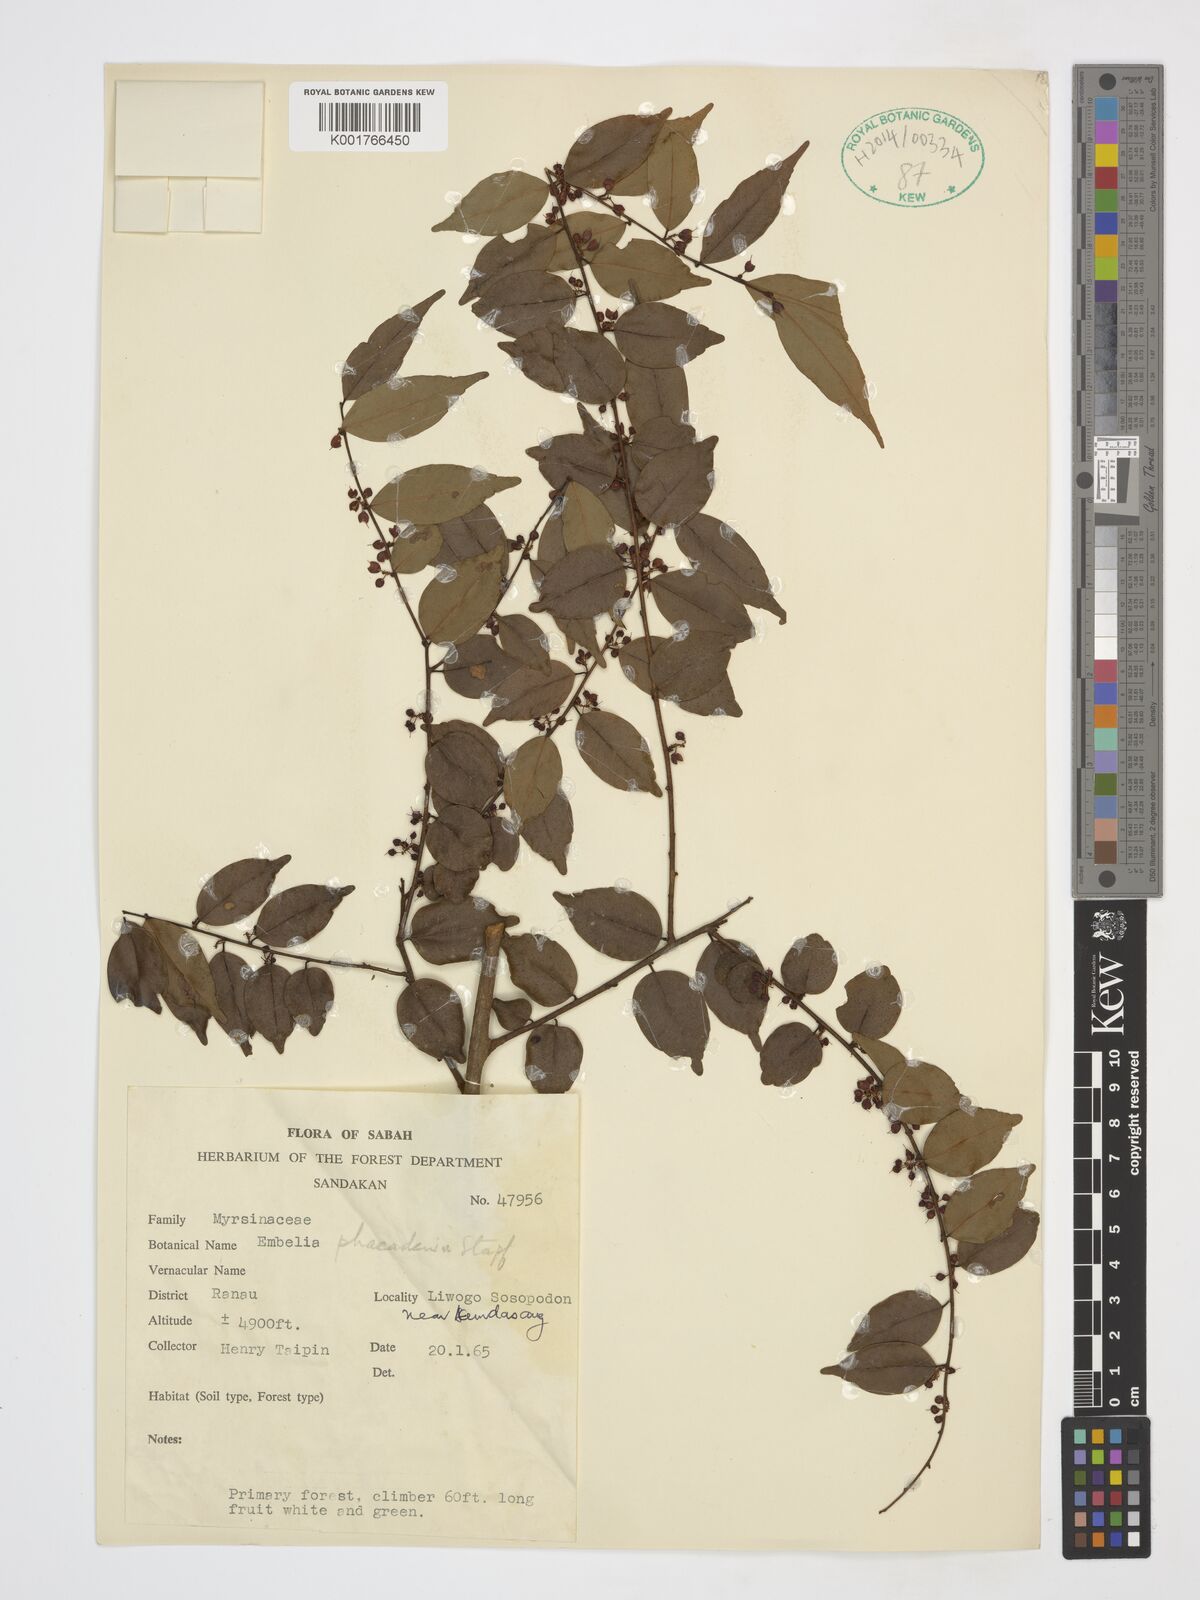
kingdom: Plantae
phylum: Tracheophyta
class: Magnoliopsida
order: Ericales
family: Primulaceae
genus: Embelia
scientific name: Embelia phaeadenia
